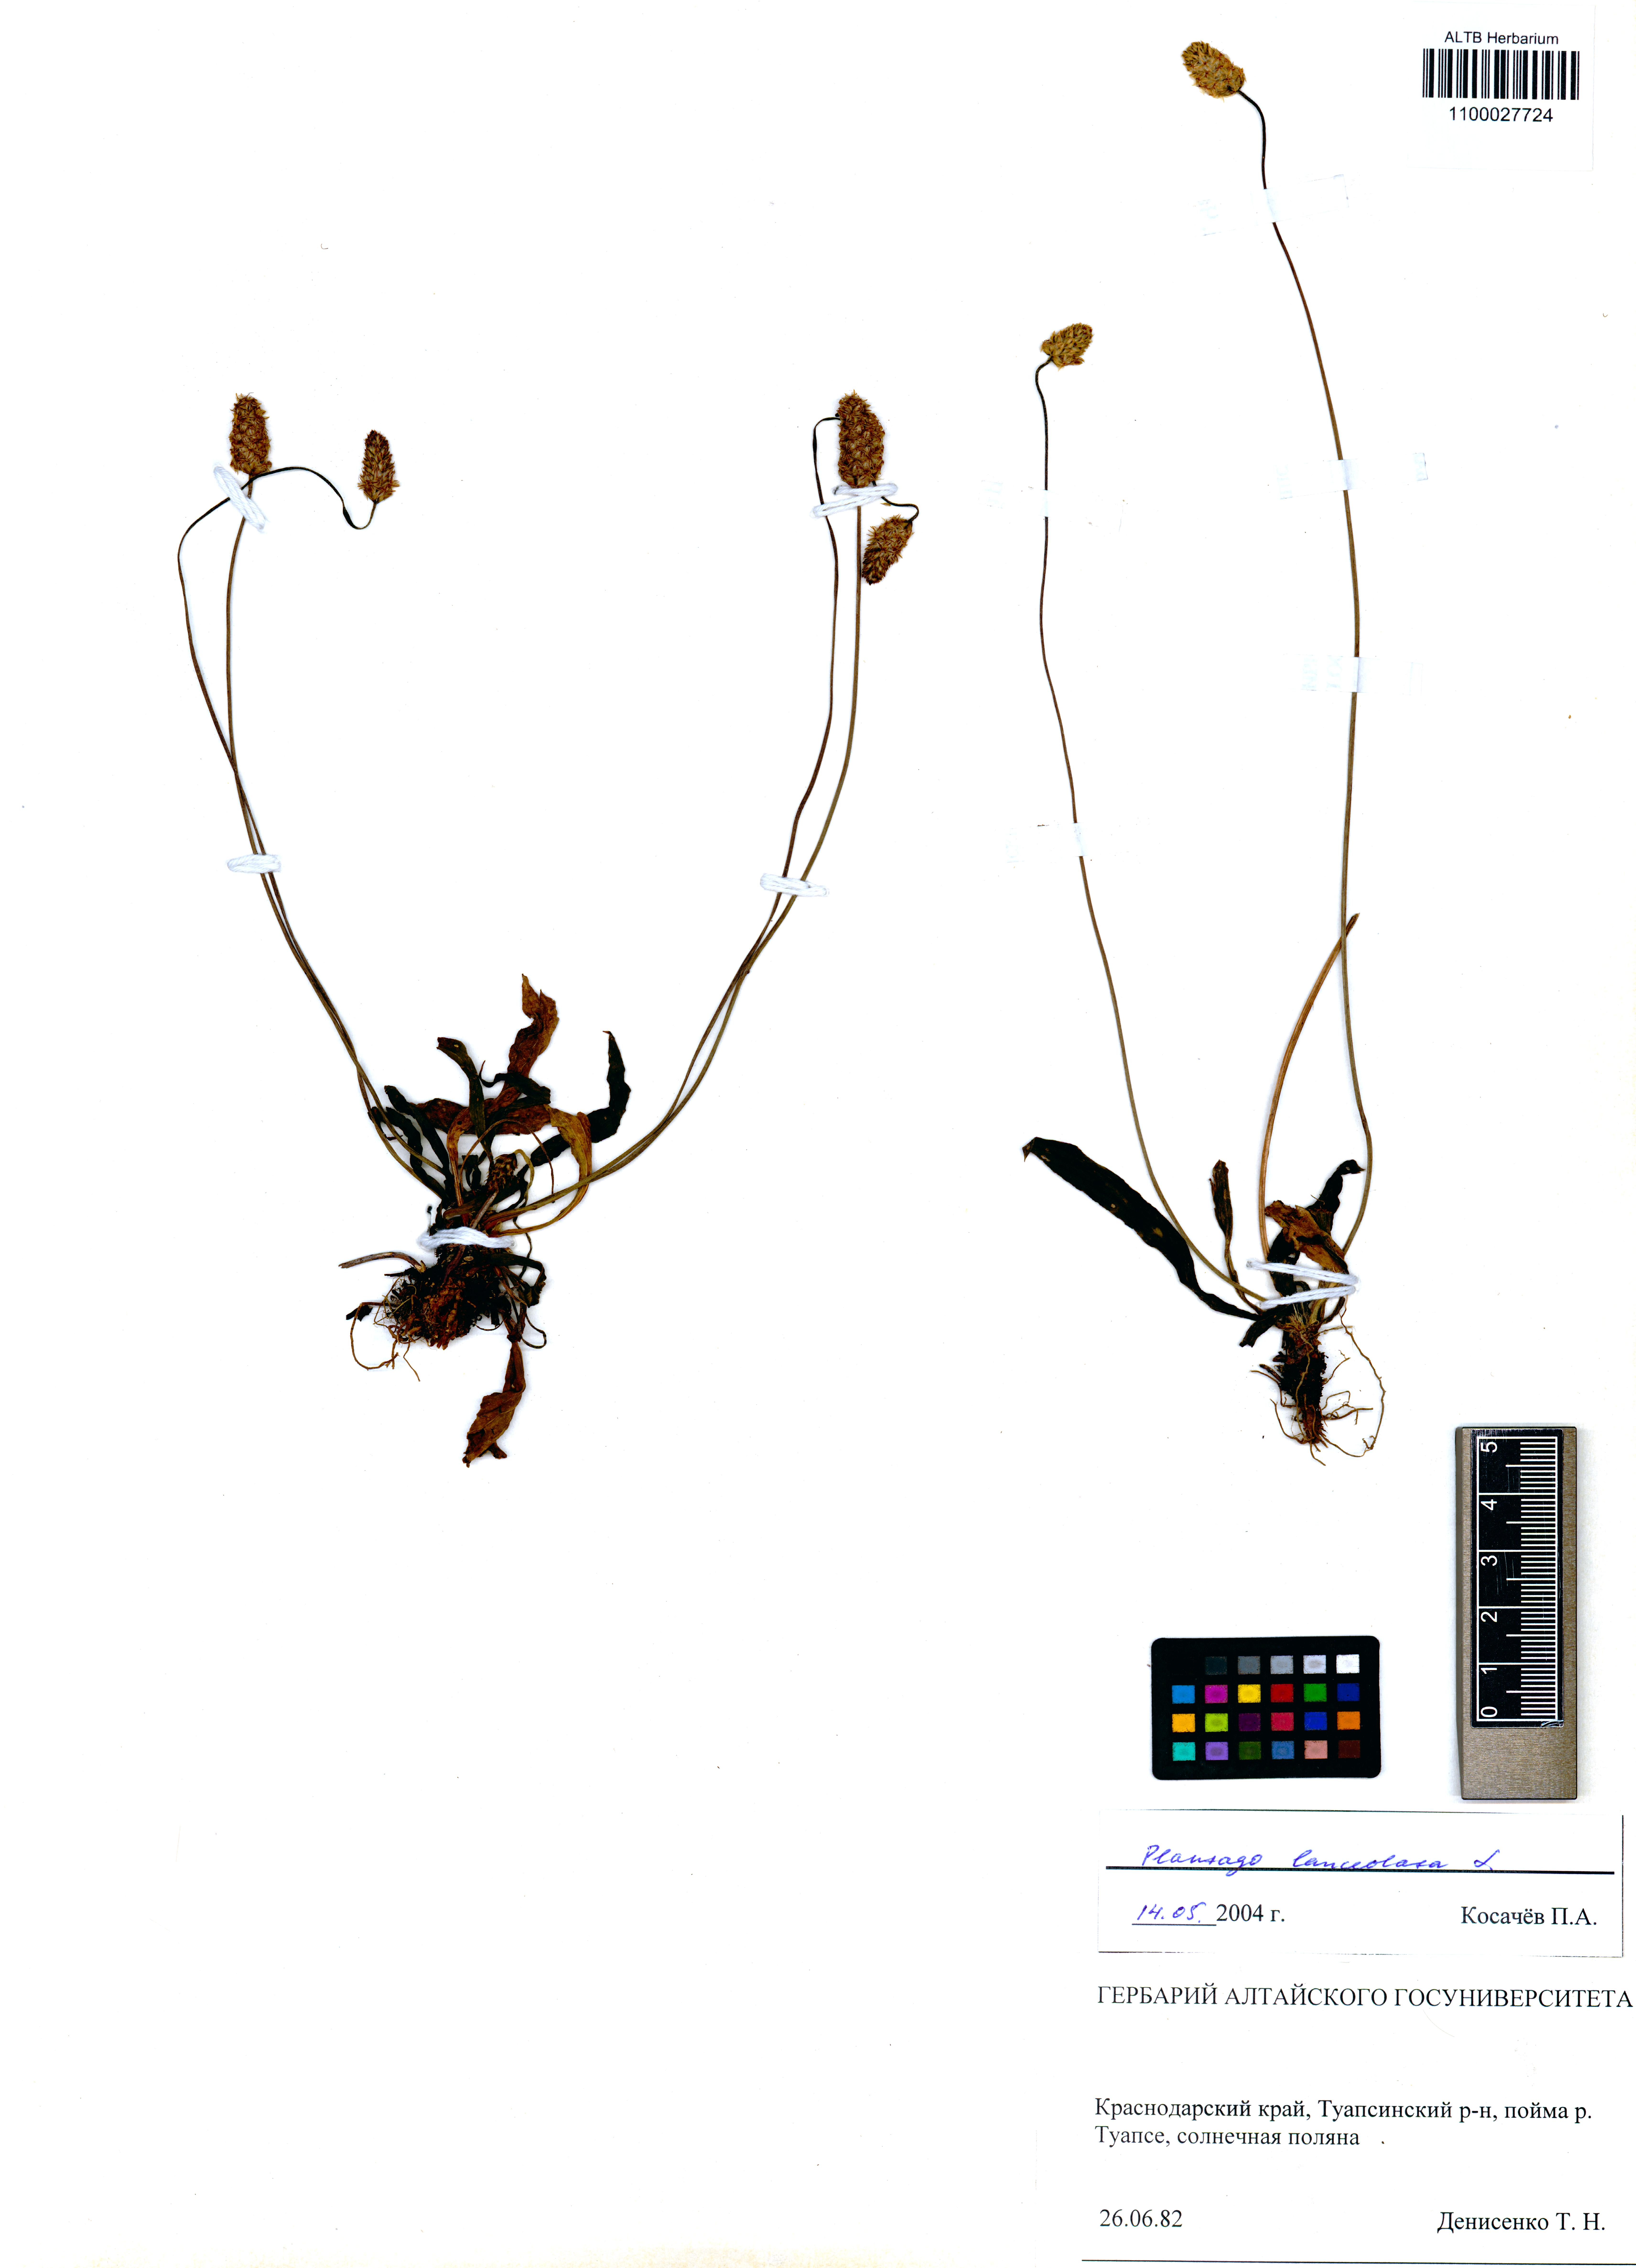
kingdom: Plantae
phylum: Tracheophyta
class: Magnoliopsida
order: Lamiales
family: Plantaginaceae
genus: Plantago
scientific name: Plantago lanceolata
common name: Ribwort plantain
